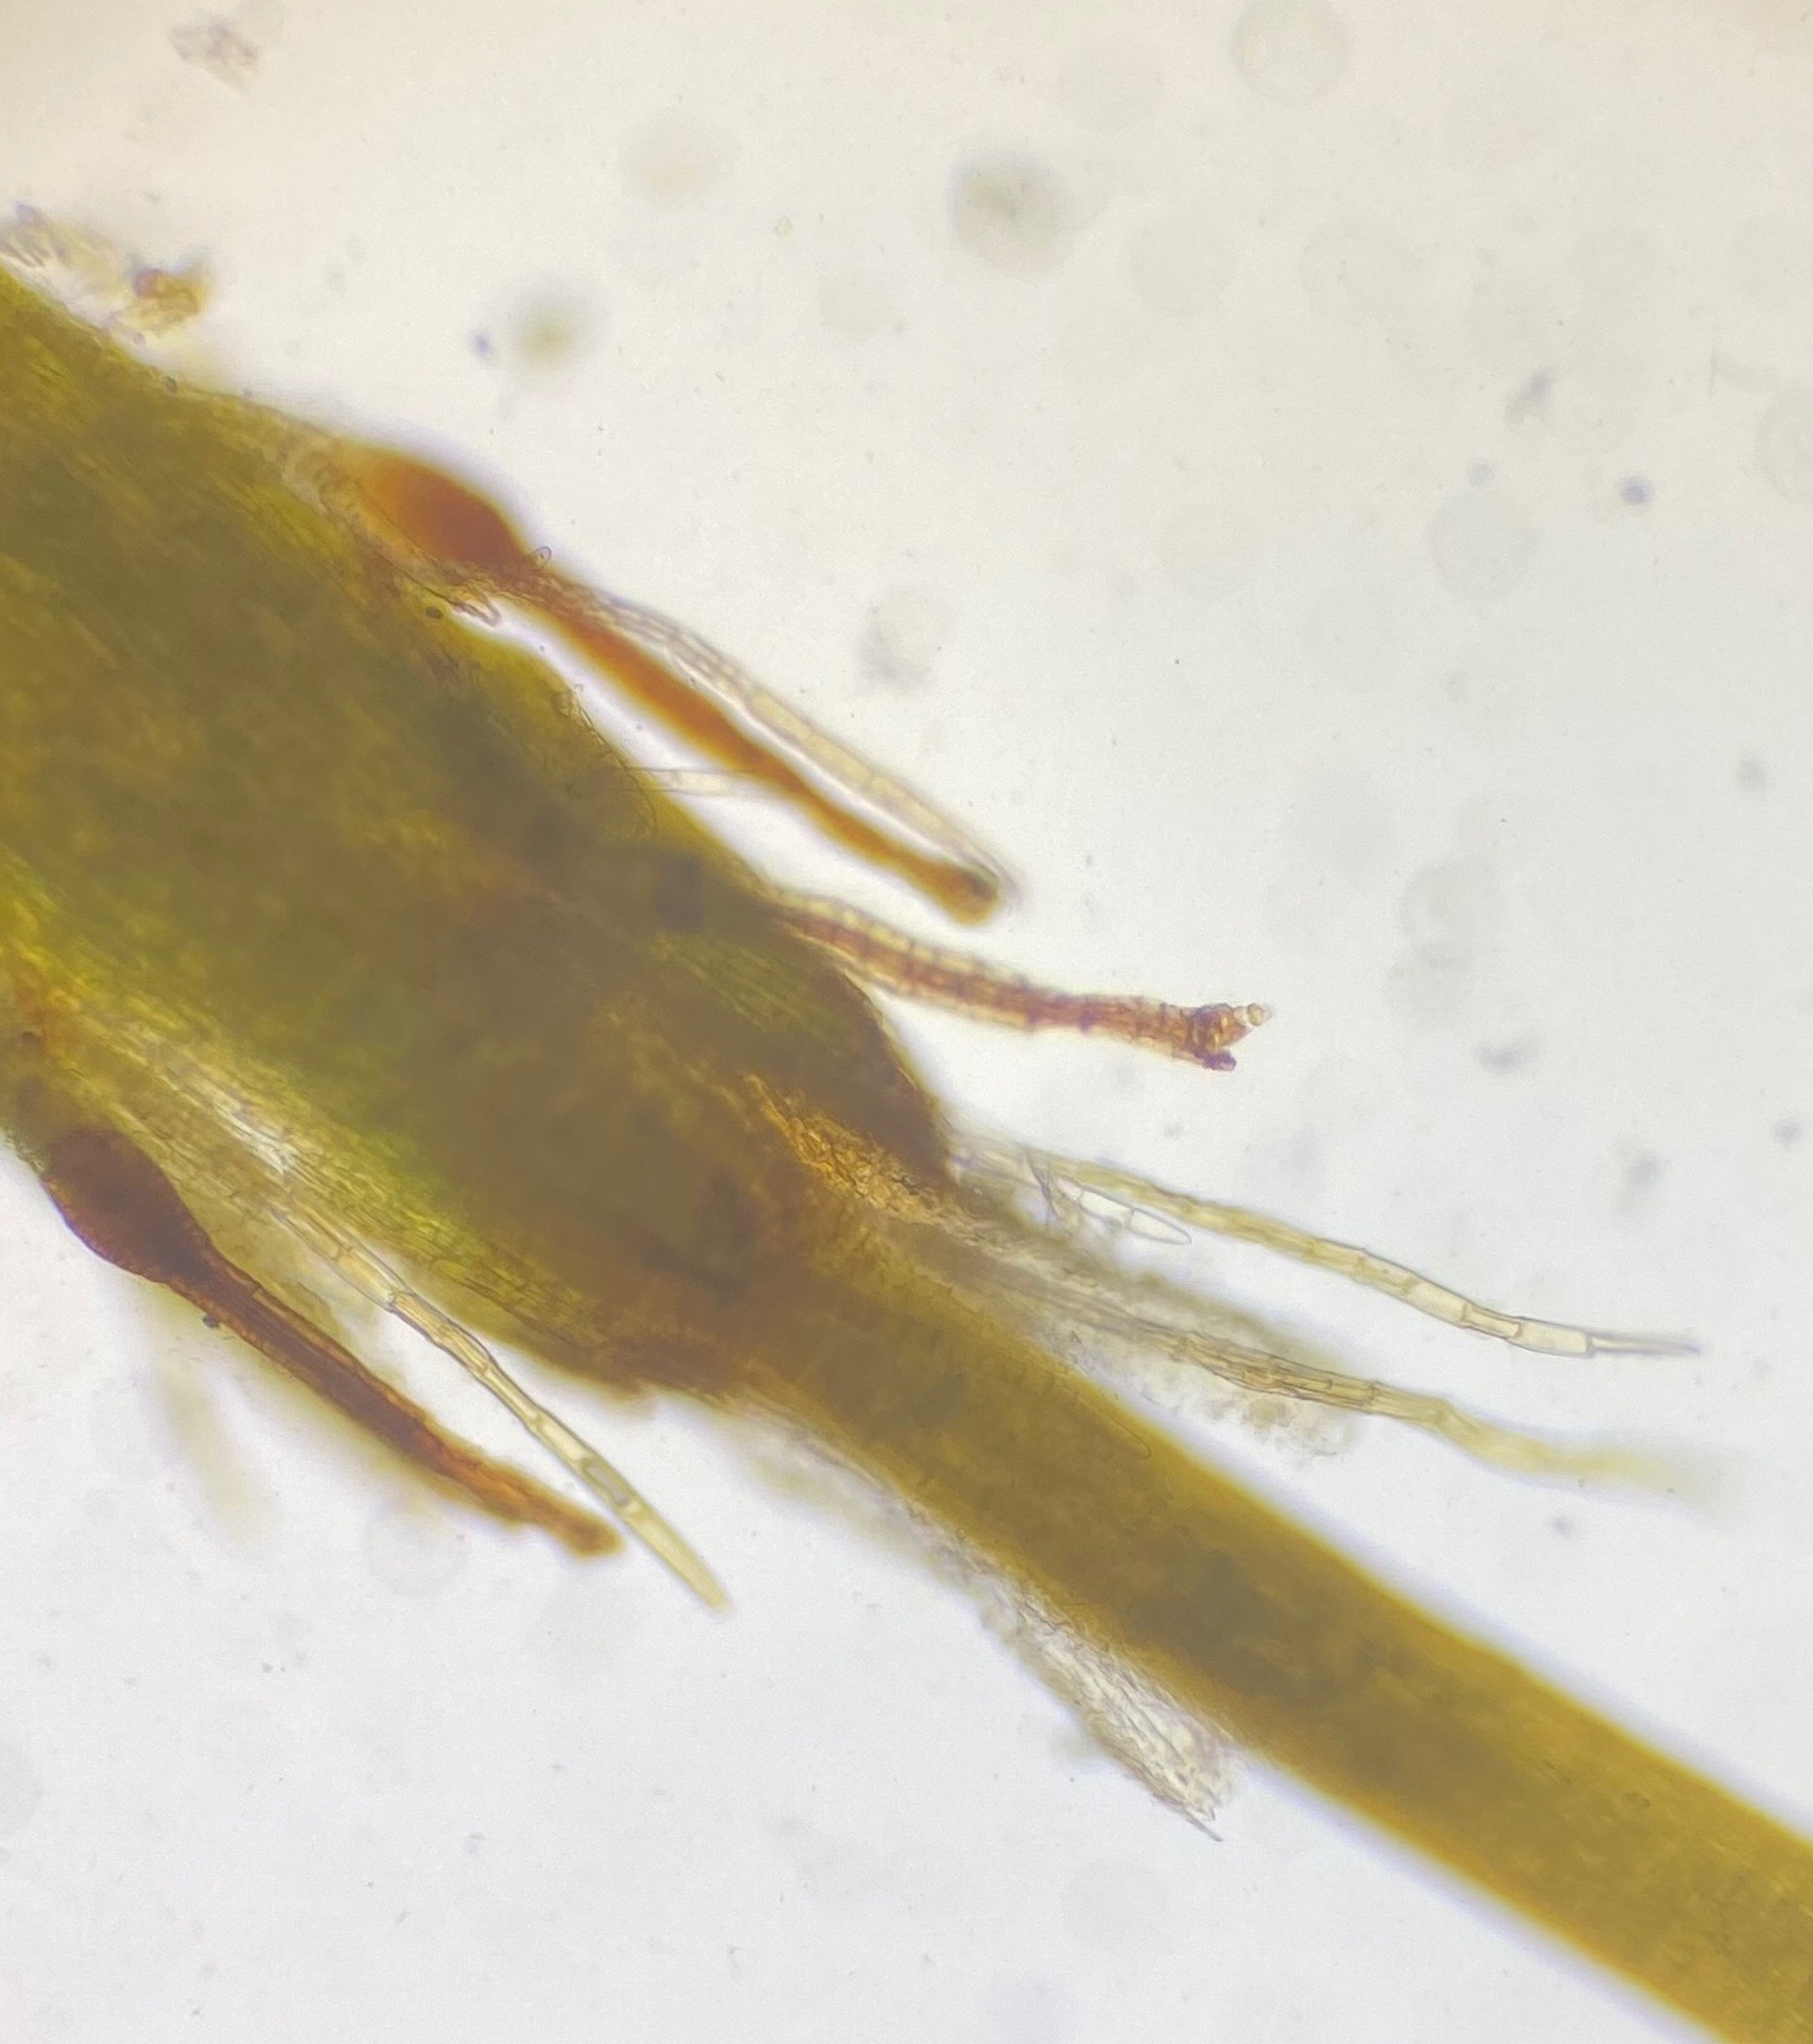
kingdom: Plantae
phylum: Bryophyta
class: Bryopsida
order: Orthotrichales
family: Orthotrichaceae
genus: Orthotrichum
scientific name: Orthotrichum stramineum
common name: Strågul furehætte
